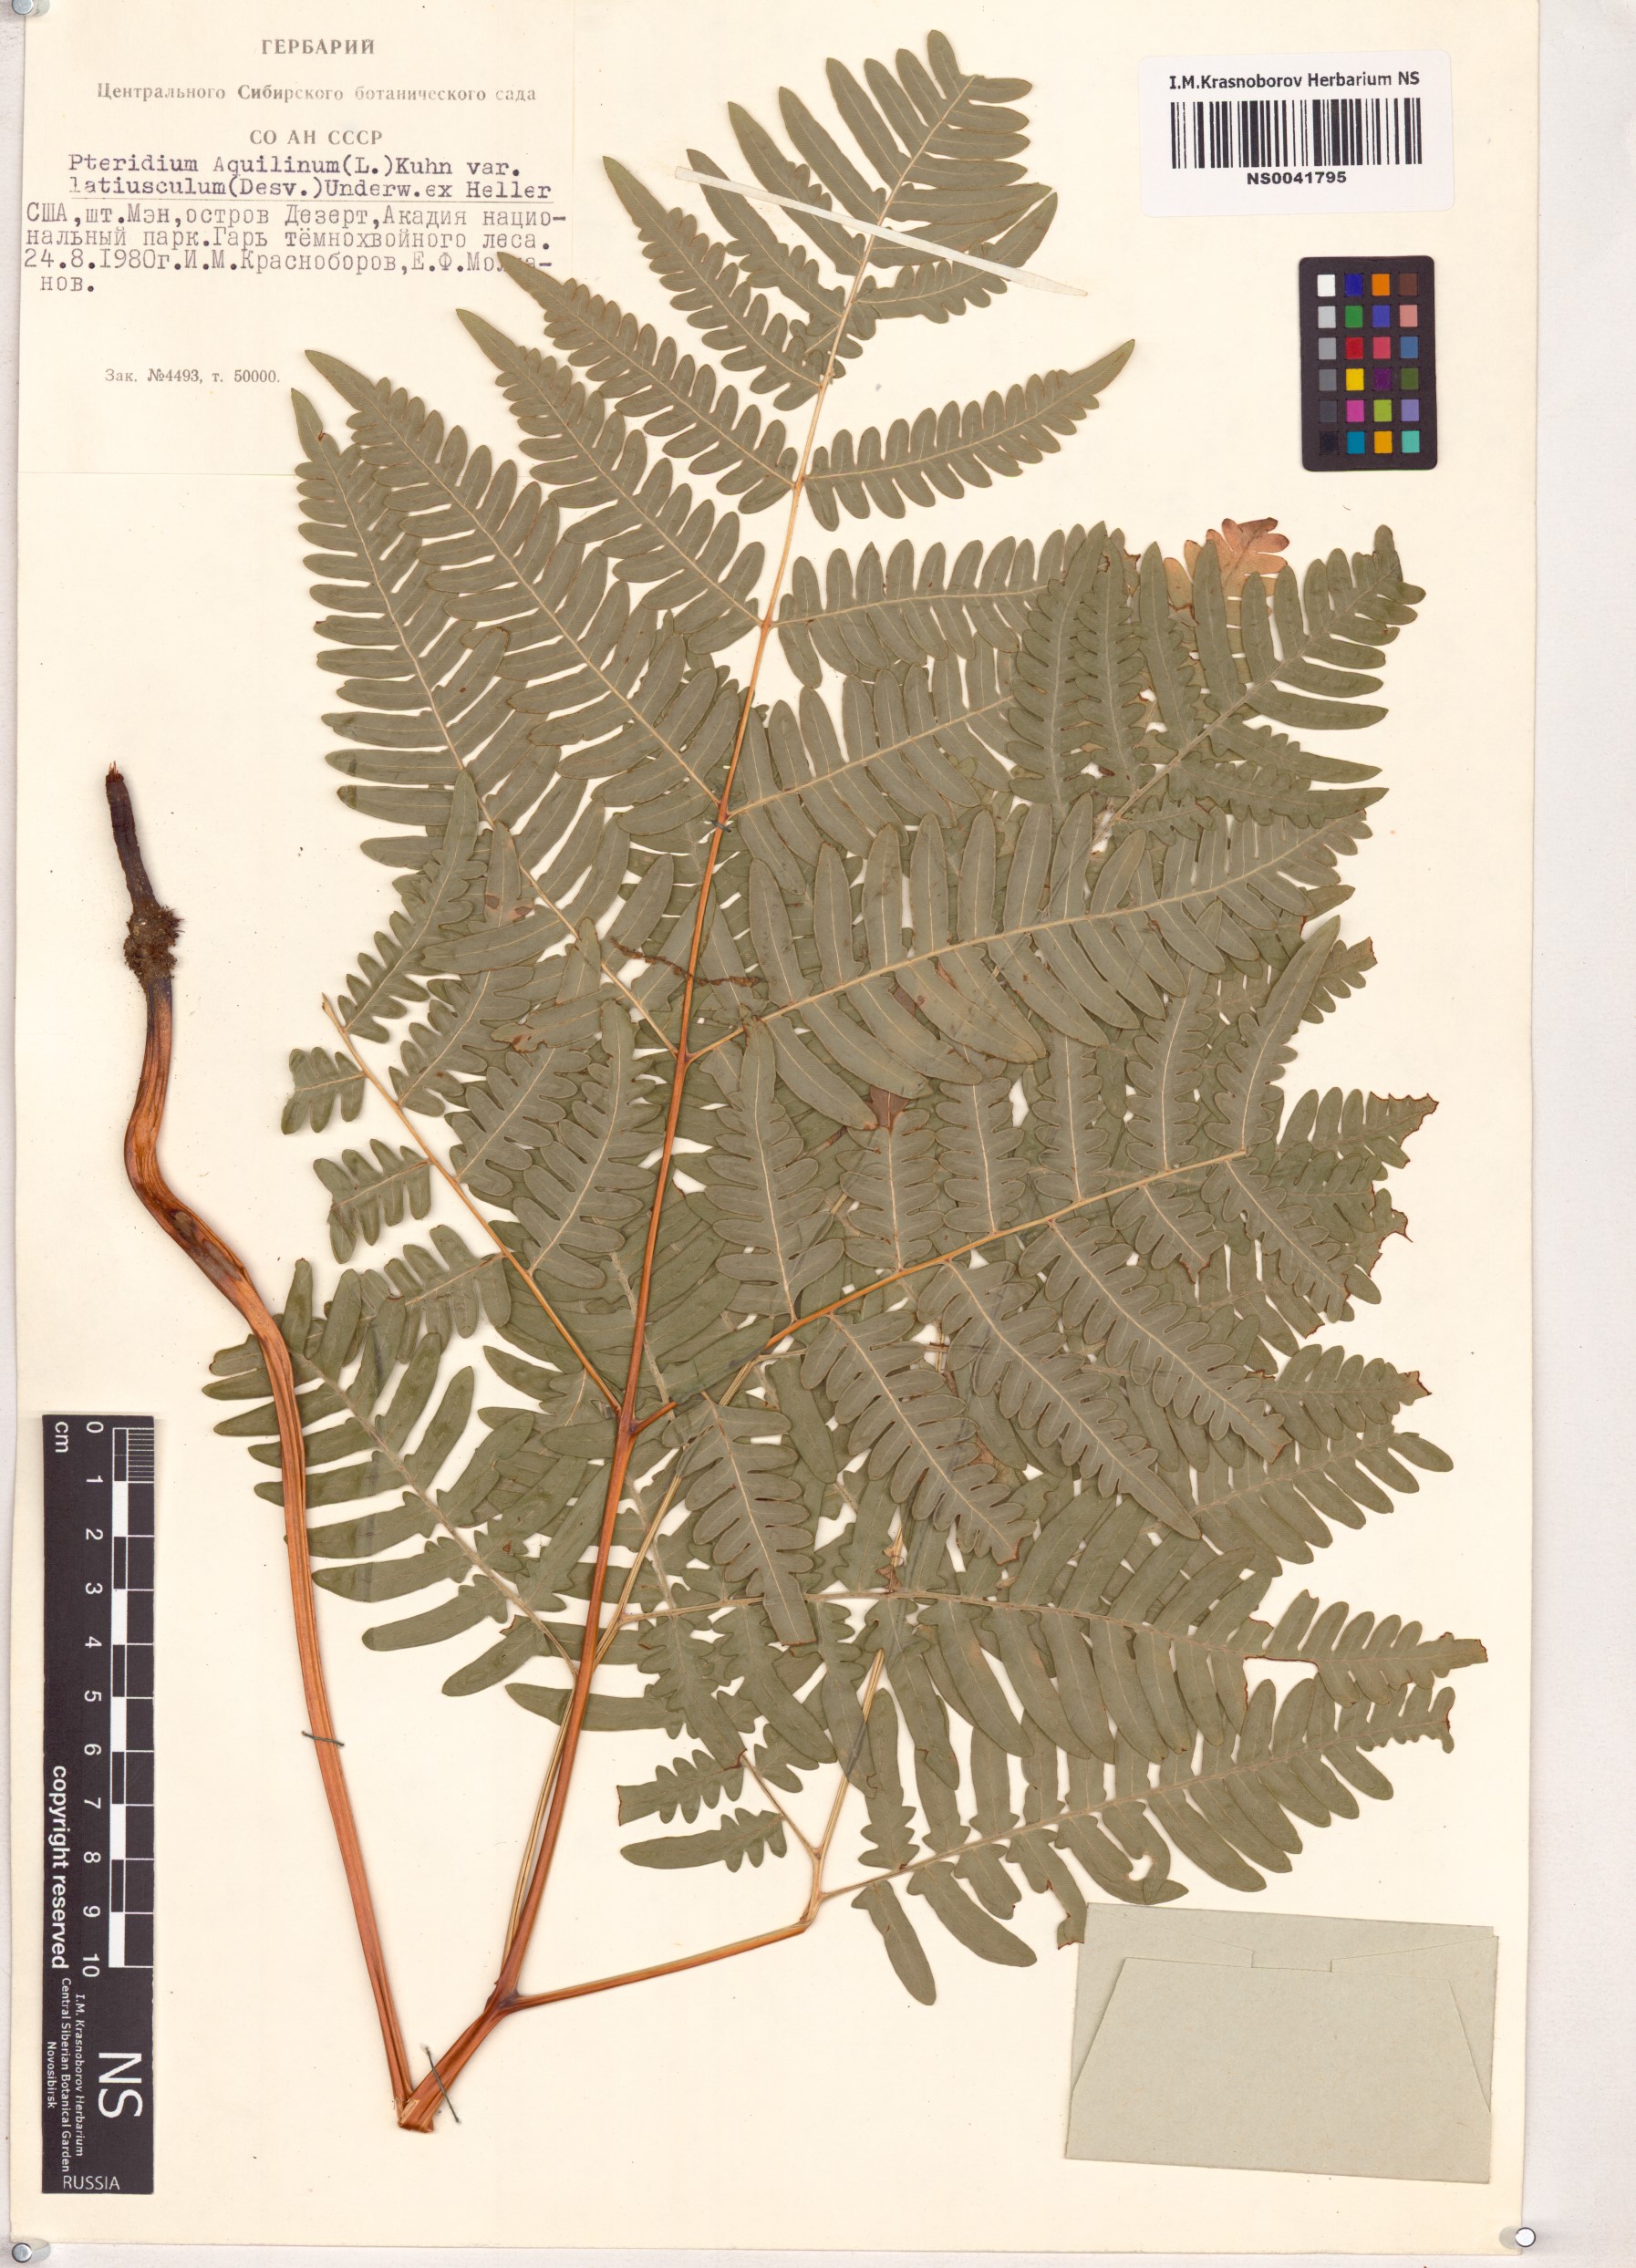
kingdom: Plantae
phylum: Tracheophyta
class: Polypodiopsida
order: Polypodiales
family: Dennstaedtiaceae
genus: Pteridium
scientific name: Pteridium aquilinum
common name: Bracken
